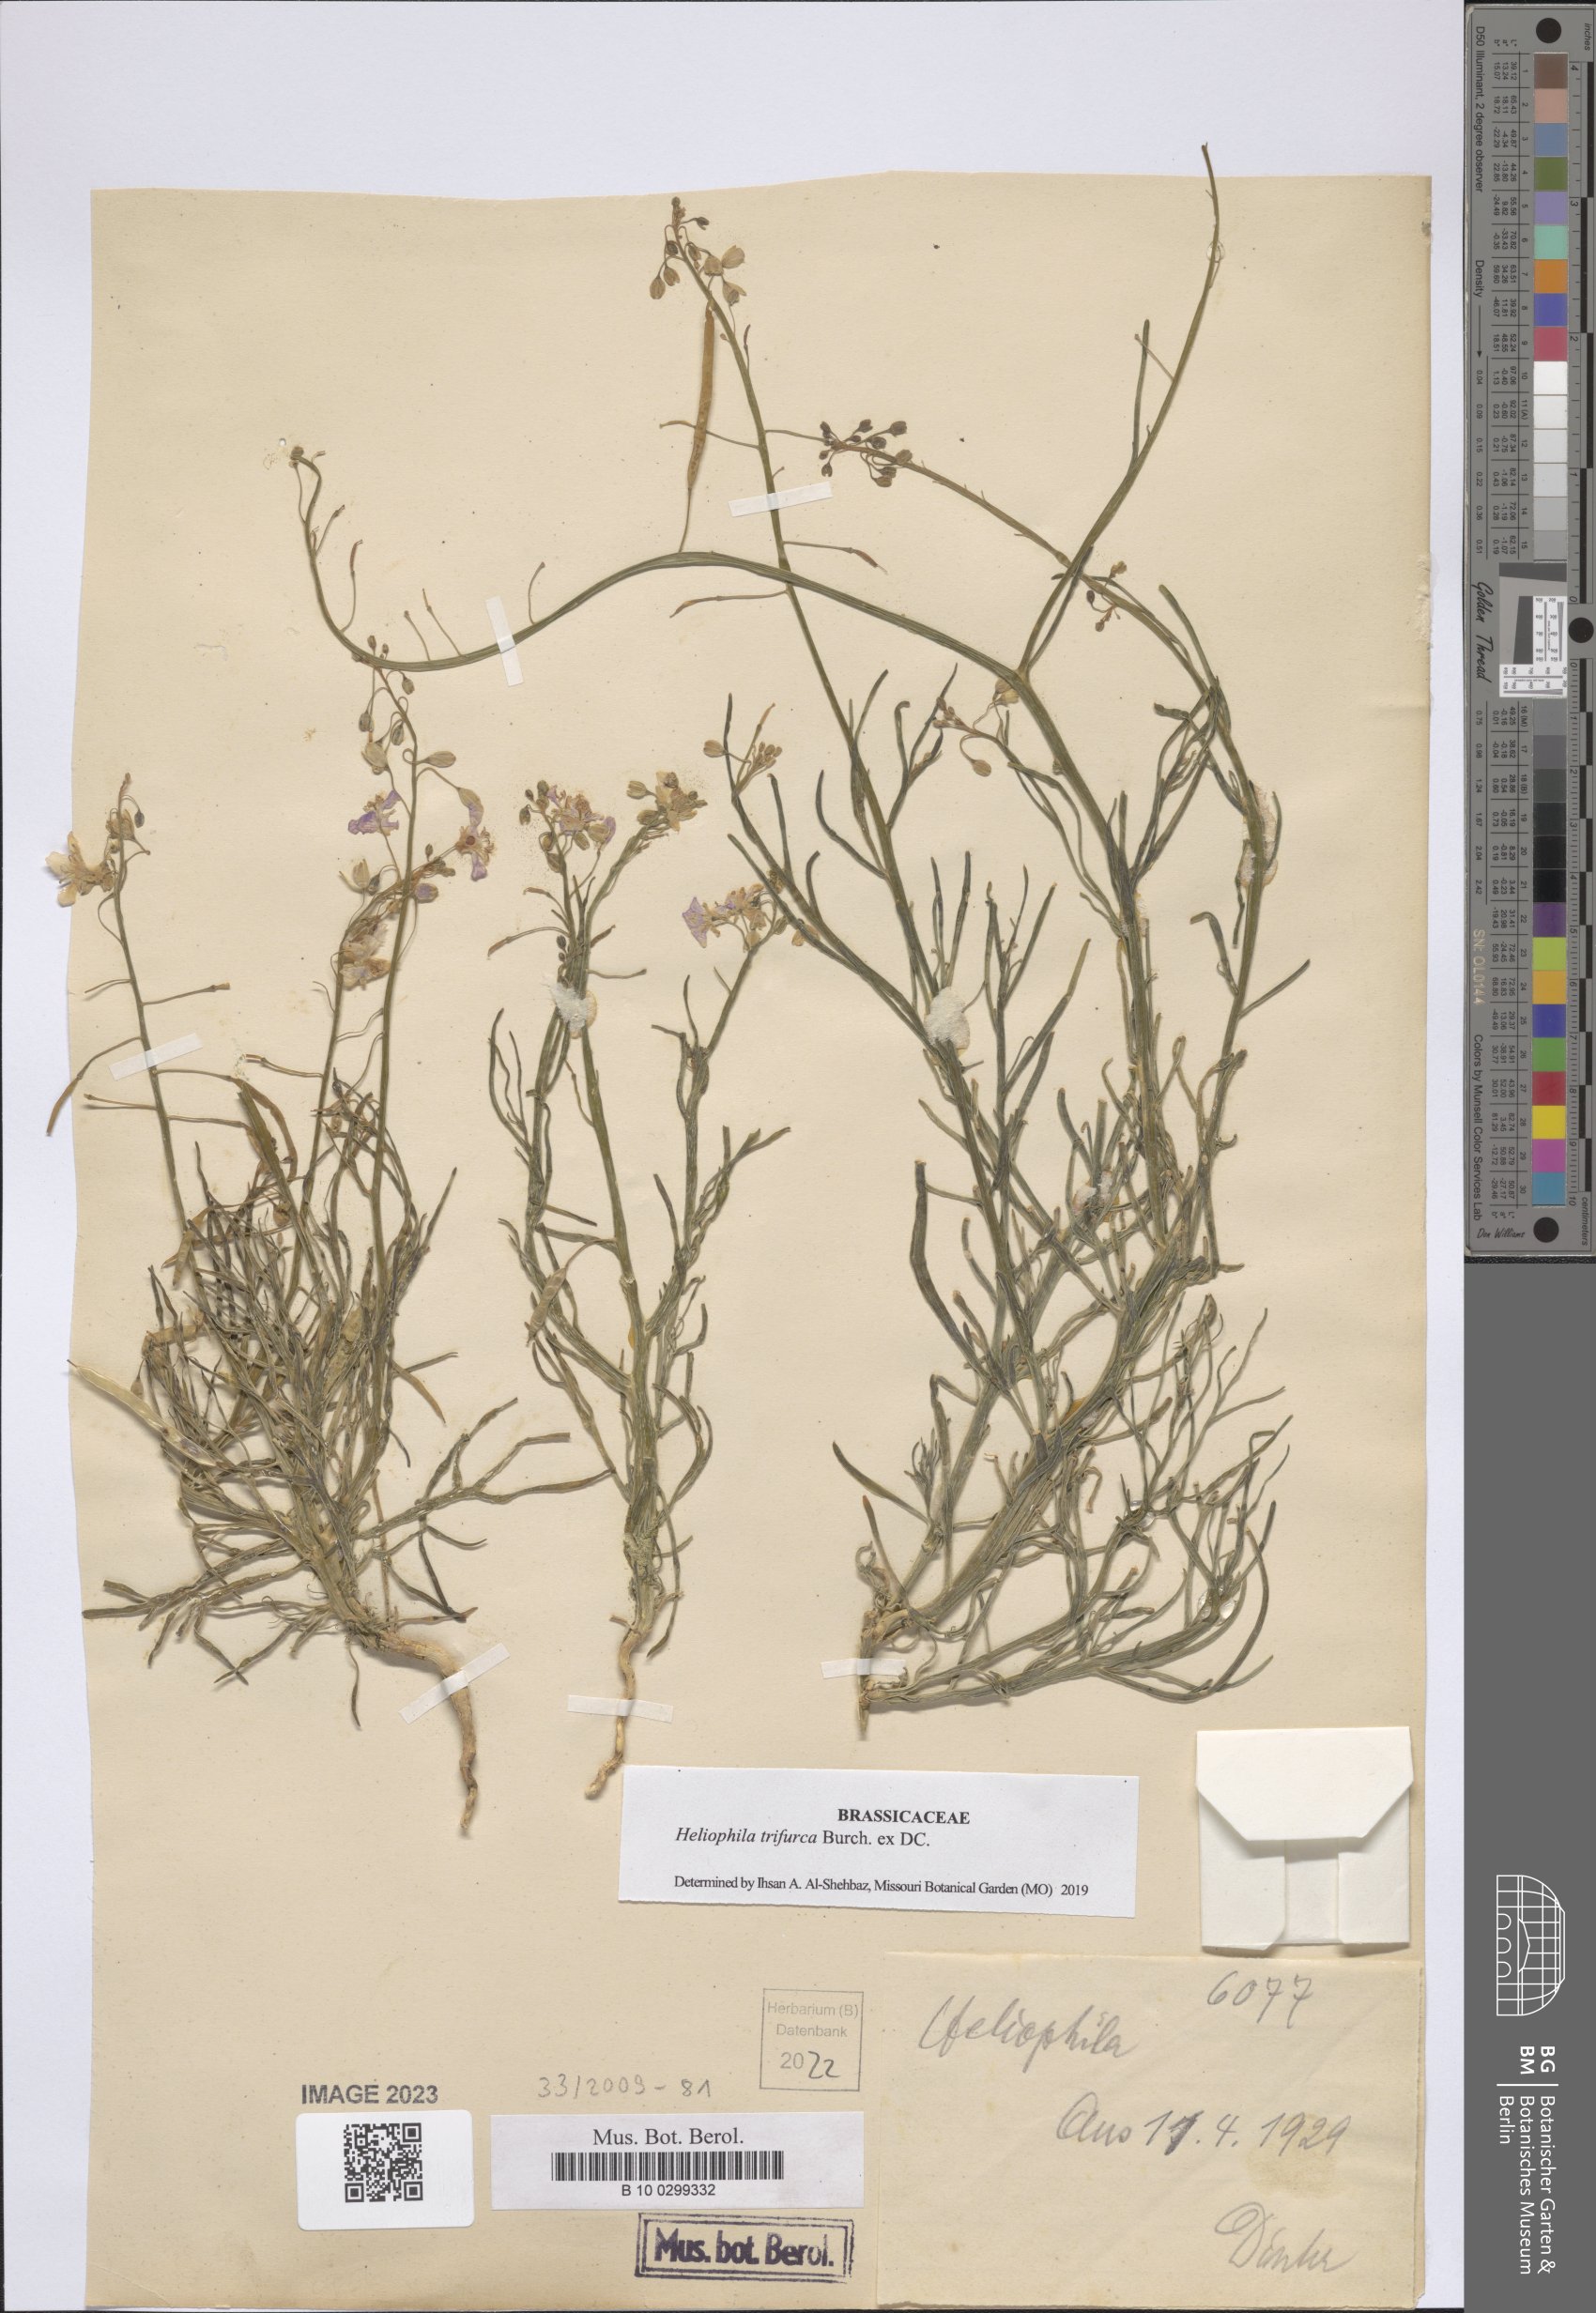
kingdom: Plantae
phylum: Tracheophyta
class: Magnoliopsida
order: Brassicales
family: Brassicaceae
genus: Heliophila
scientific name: Heliophila trifurca
